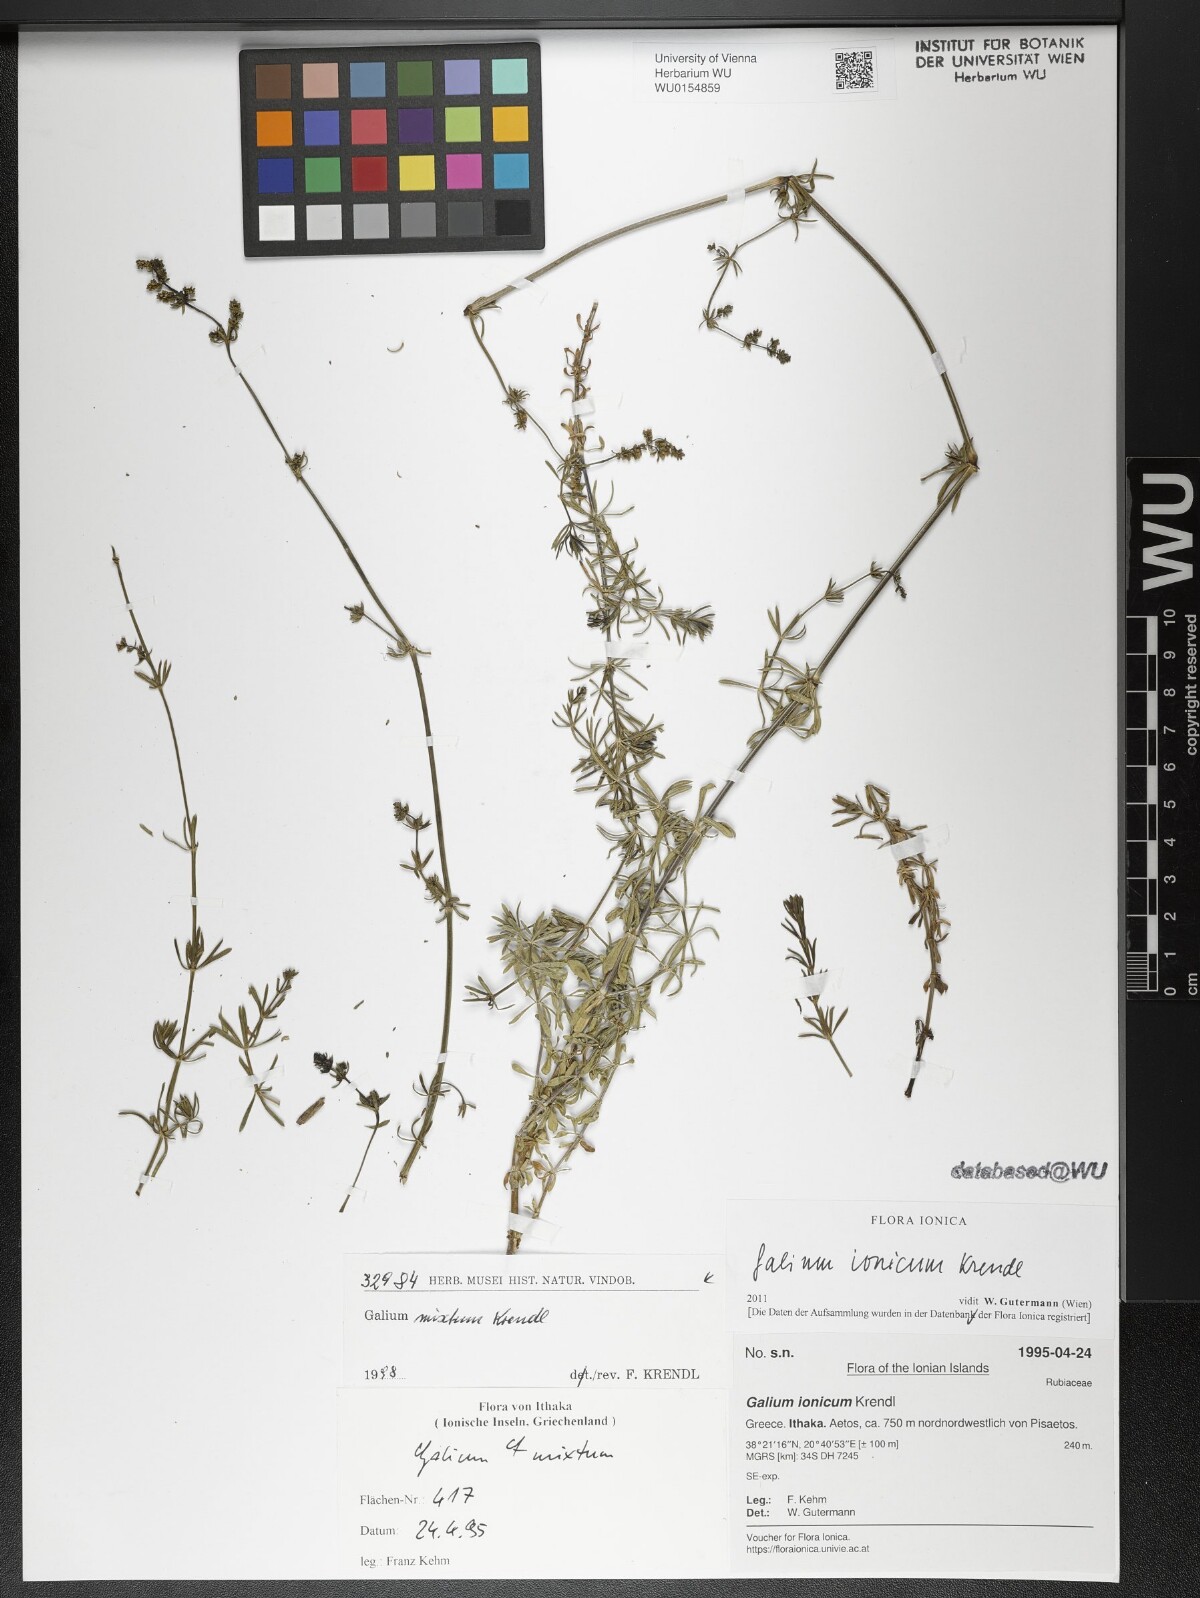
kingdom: Plantae
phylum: Tracheophyta
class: Magnoliopsida
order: Gentianales
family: Rubiaceae
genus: Galium
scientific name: Galium ionicum
